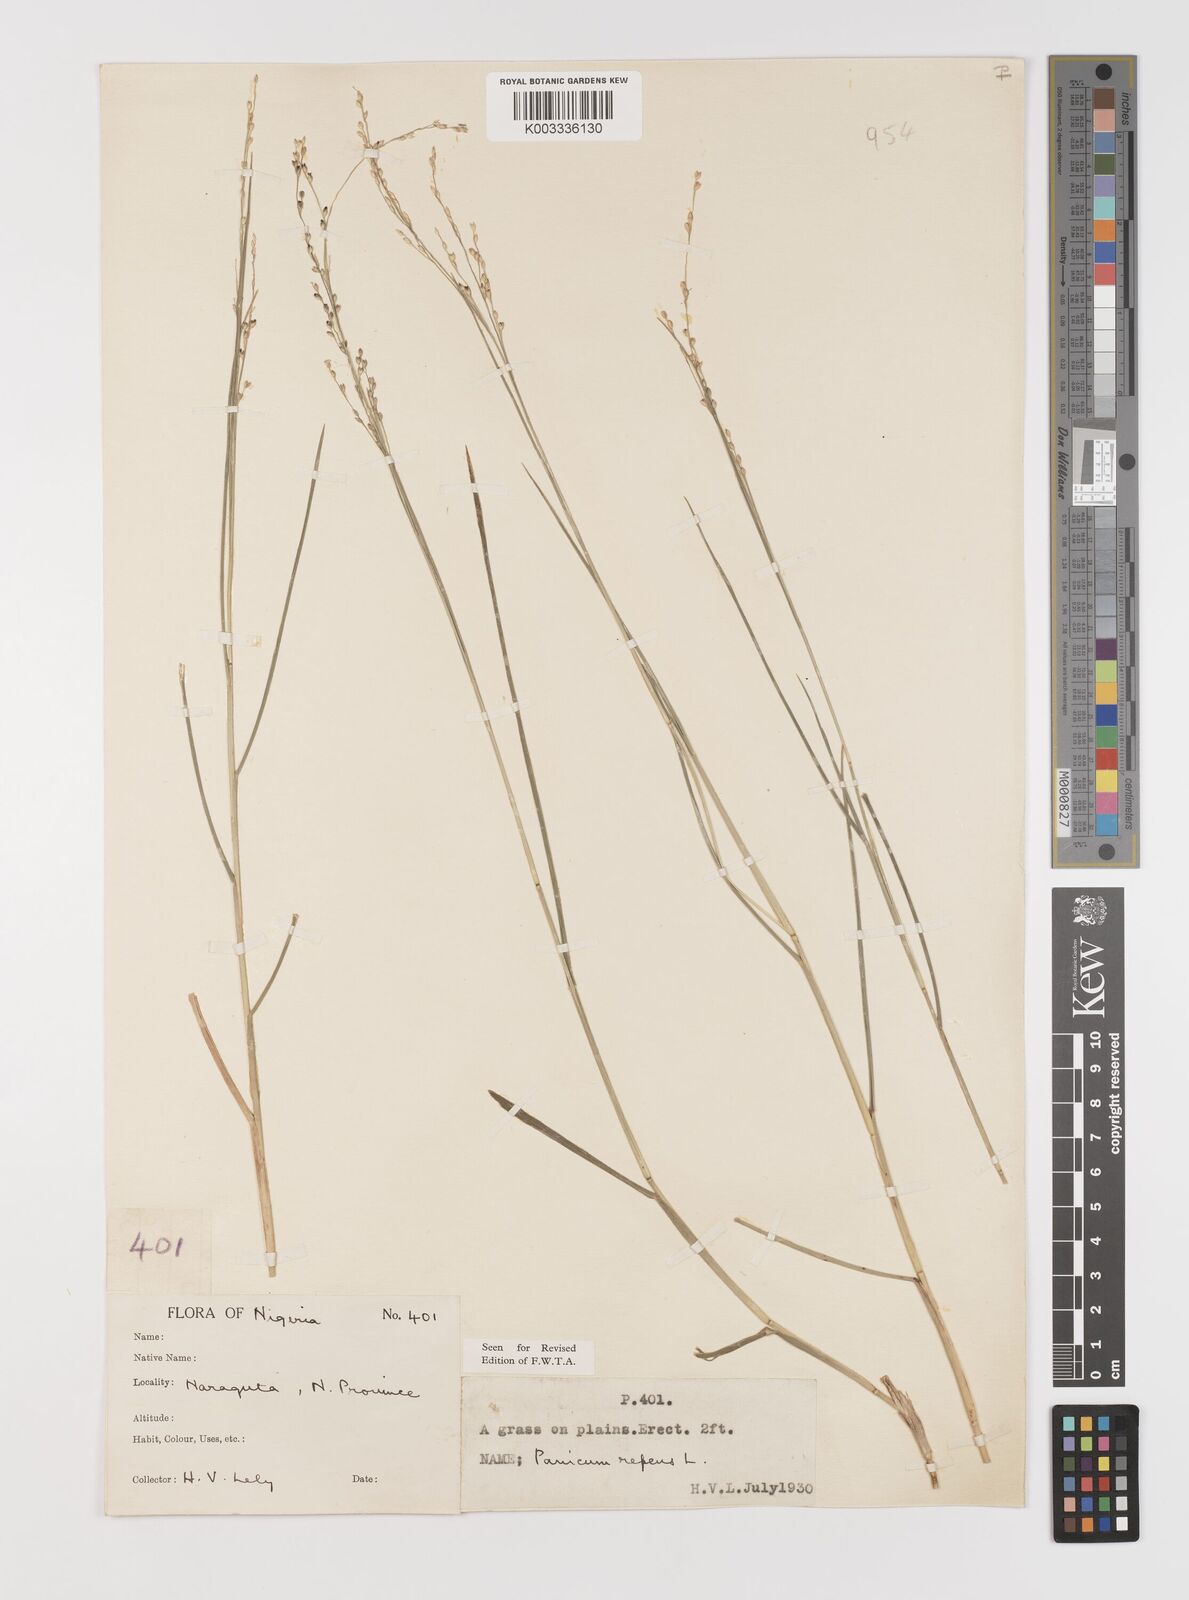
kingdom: Plantae
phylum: Tracheophyta
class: Liliopsida
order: Poales
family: Poaceae
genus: Panicum
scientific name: Panicum repens
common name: Torpedo grass
